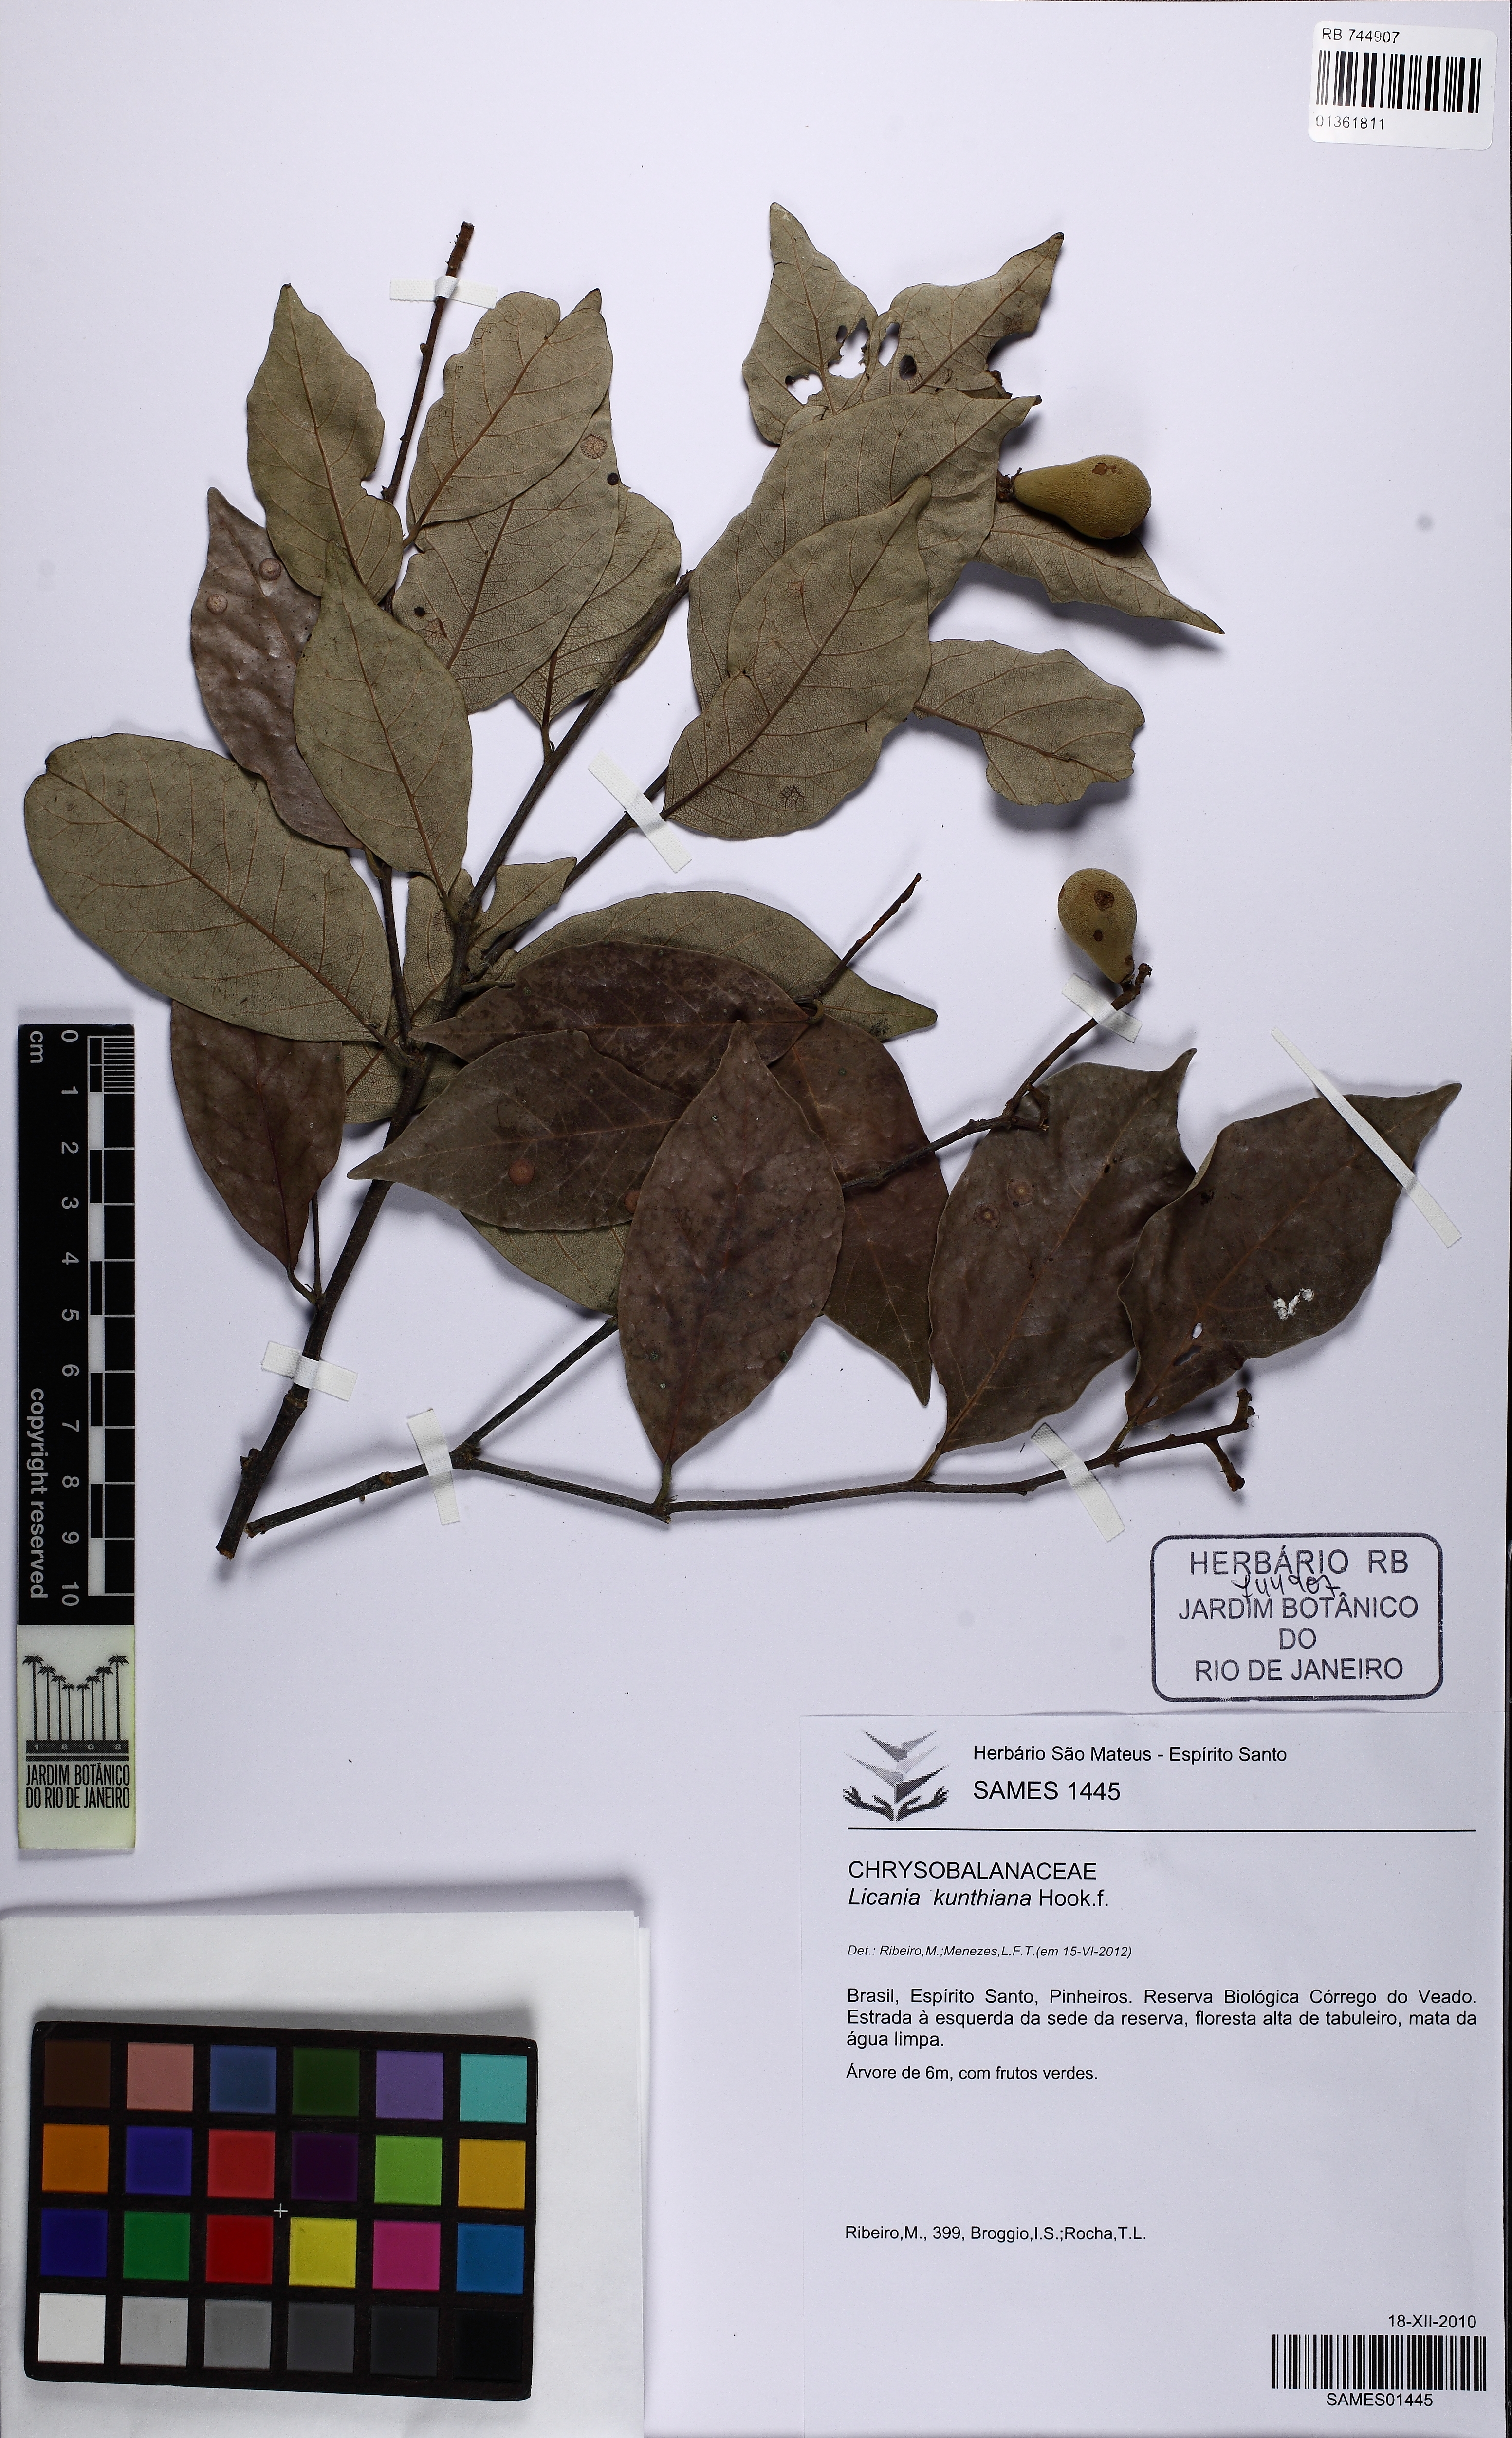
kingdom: Plantae
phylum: Tracheophyta
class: Magnoliopsida
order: Malpighiales
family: Chrysobalanaceae
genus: Licania
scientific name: Licania kunthiana
